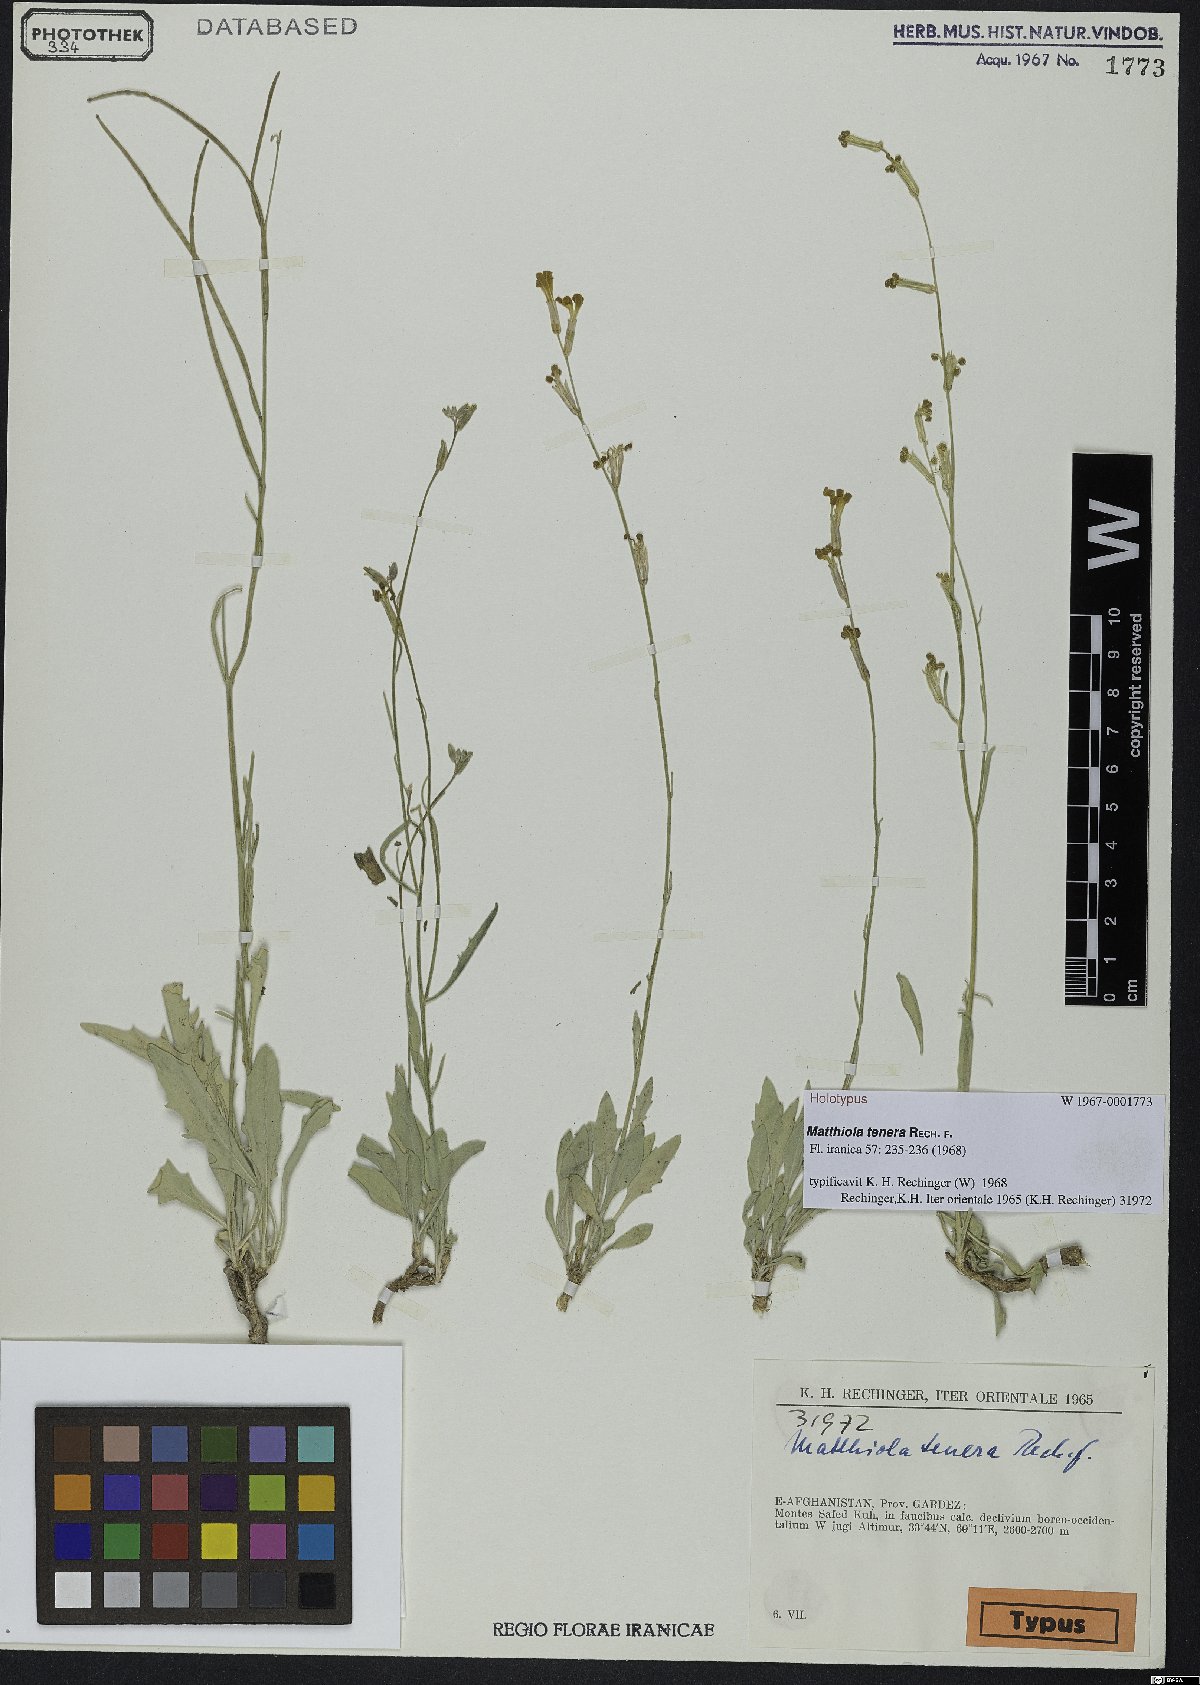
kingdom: Plantae
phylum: Tracheophyta
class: Magnoliopsida
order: Brassicales
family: Brassicaceae
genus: Matthiola
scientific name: Matthiola chorassanica
